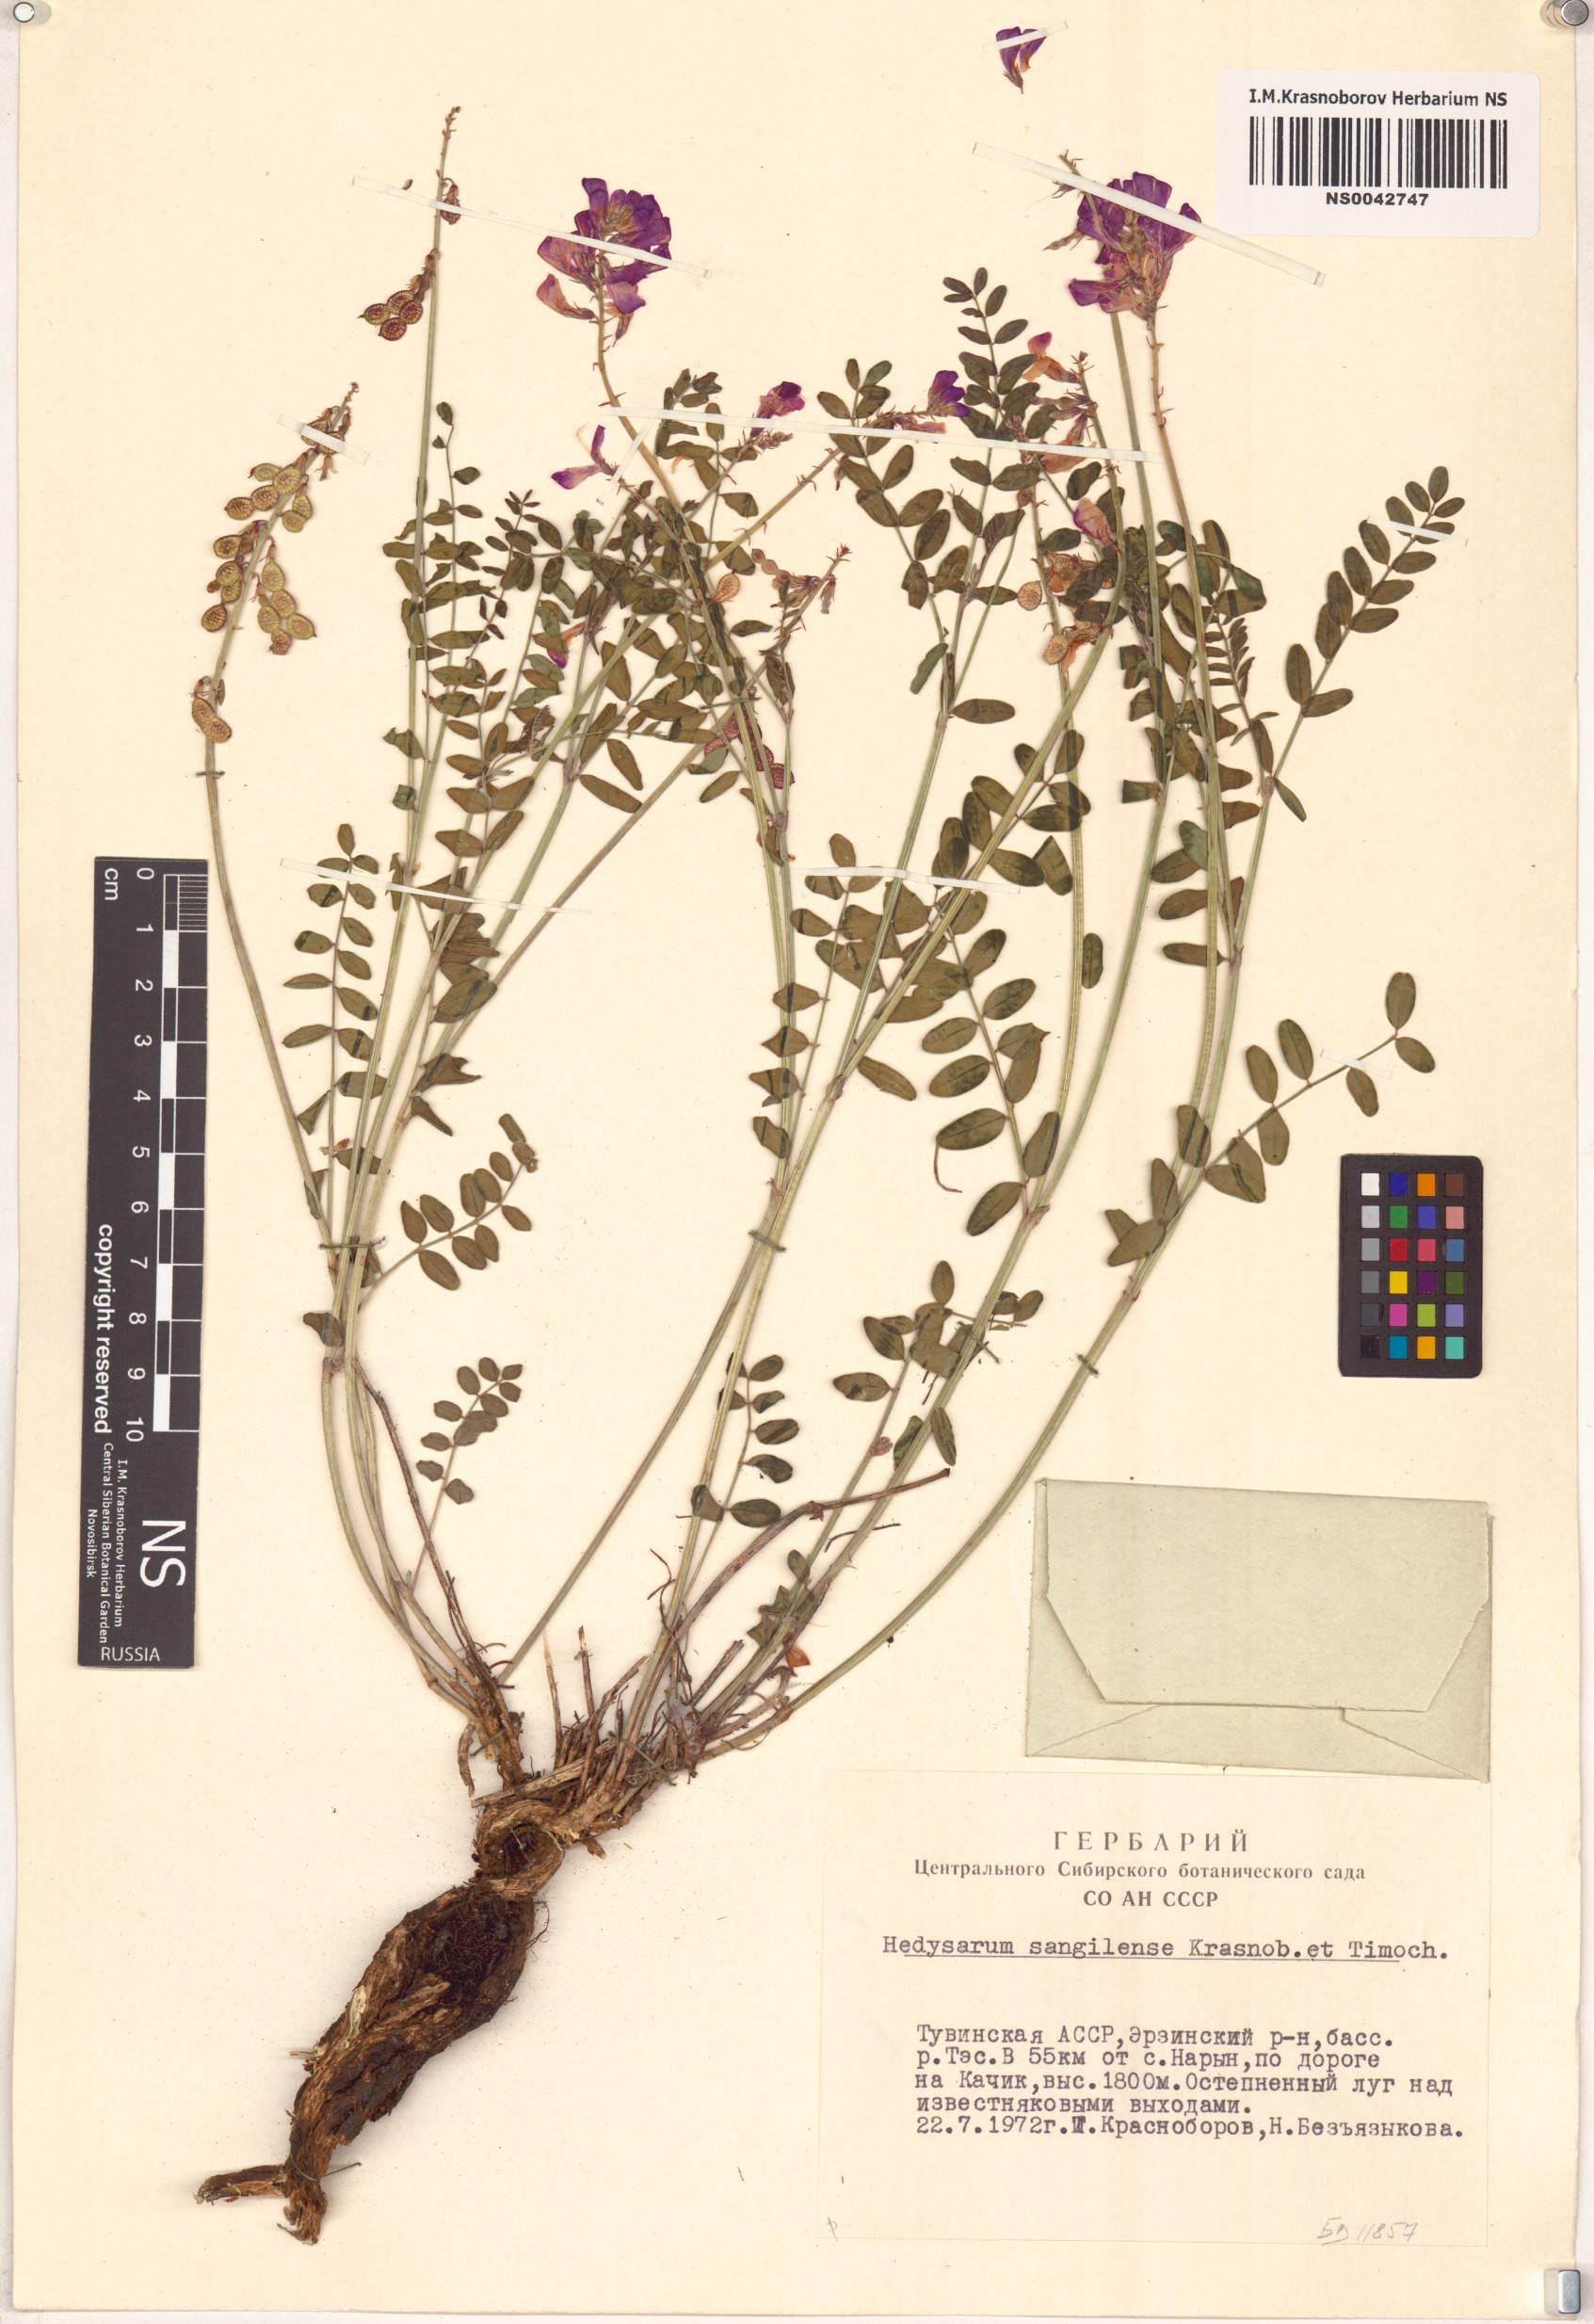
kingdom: Plantae
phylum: Tracheophyta
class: Magnoliopsida
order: Fabales
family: Fabaceae
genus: Hedysarum
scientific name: Hedysarum sangilense
